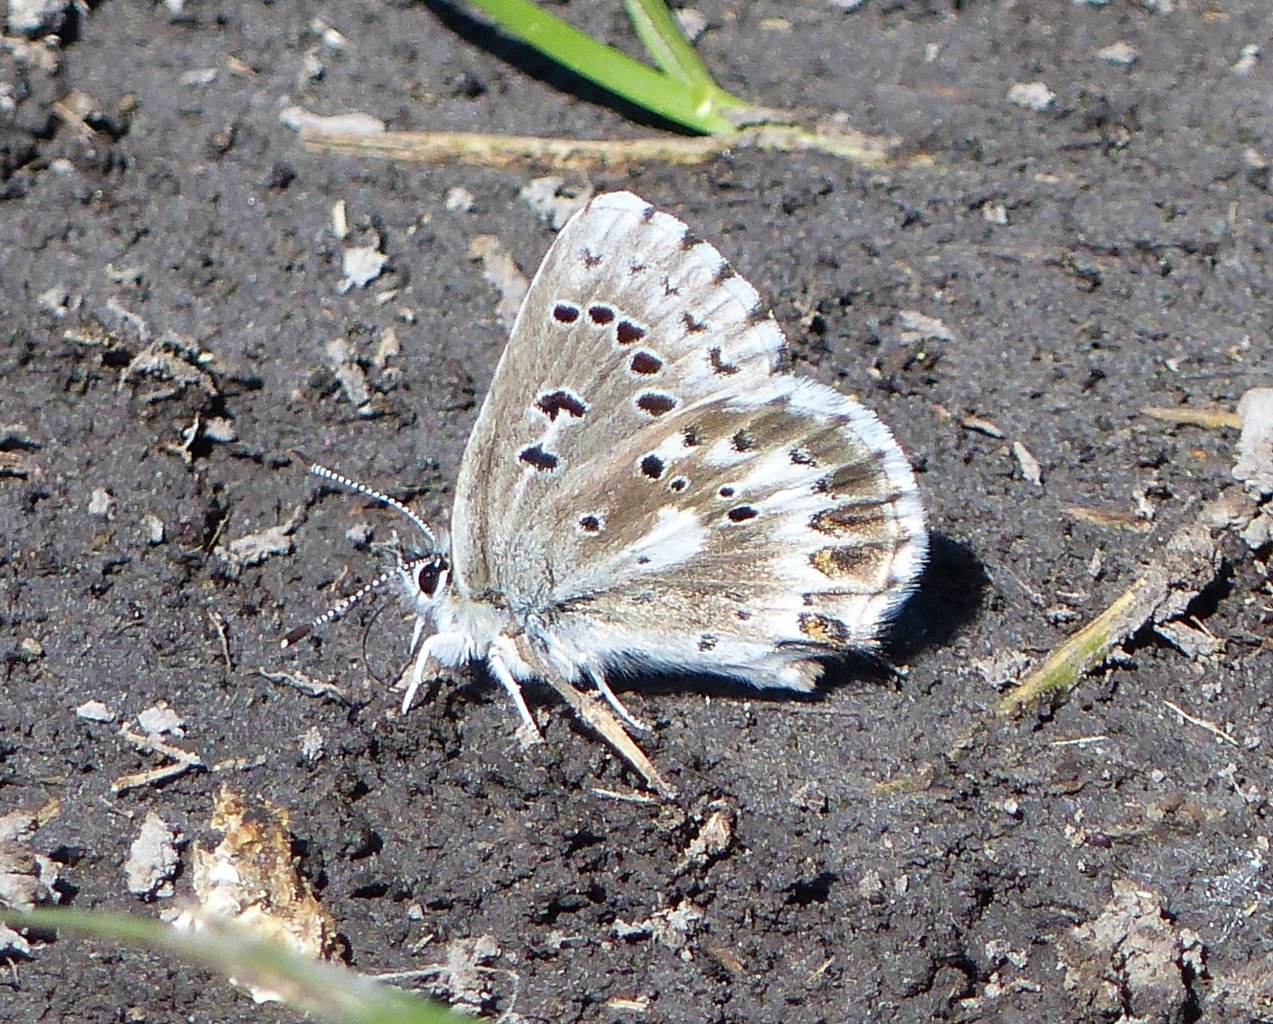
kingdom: Animalia
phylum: Arthropoda
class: Insecta
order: Lepidoptera
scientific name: Lepidoptera
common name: Butterflies
